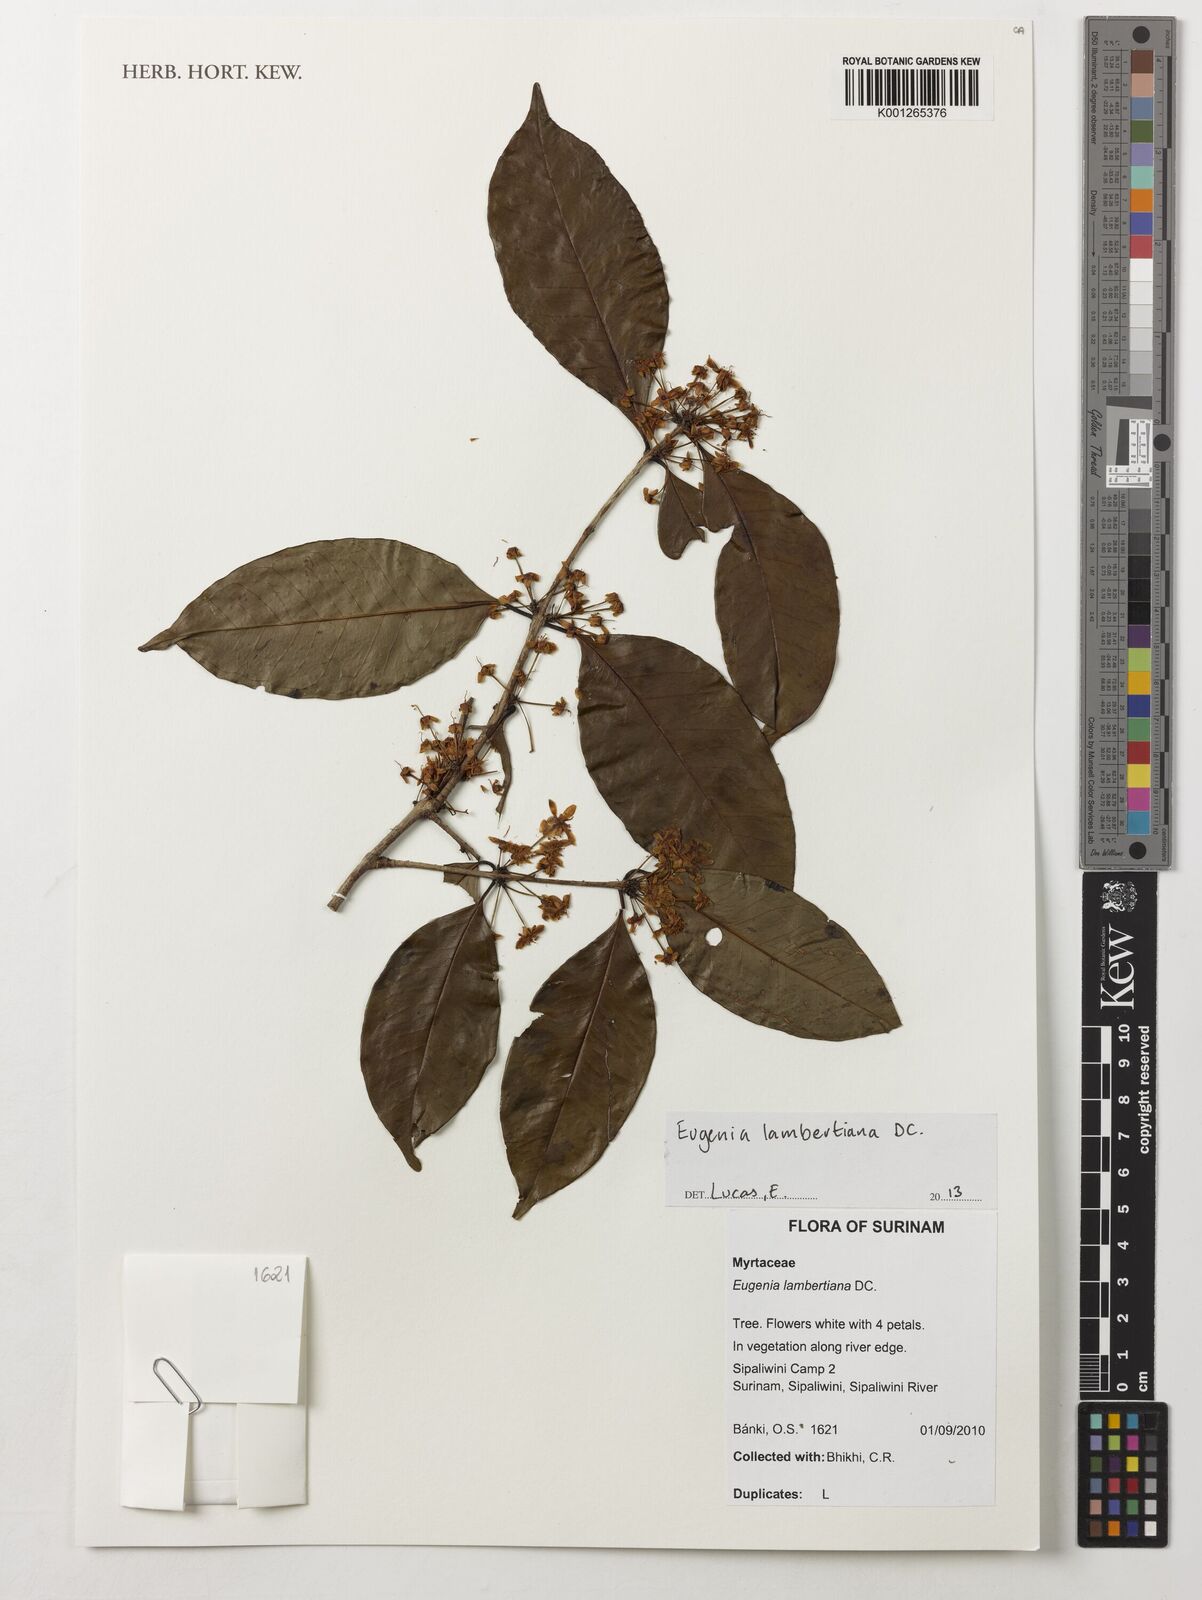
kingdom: Plantae
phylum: Tracheophyta
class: Magnoliopsida
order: Myrtales
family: Myrtaceae
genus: Eugenia
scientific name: Eugenia lambertiana
